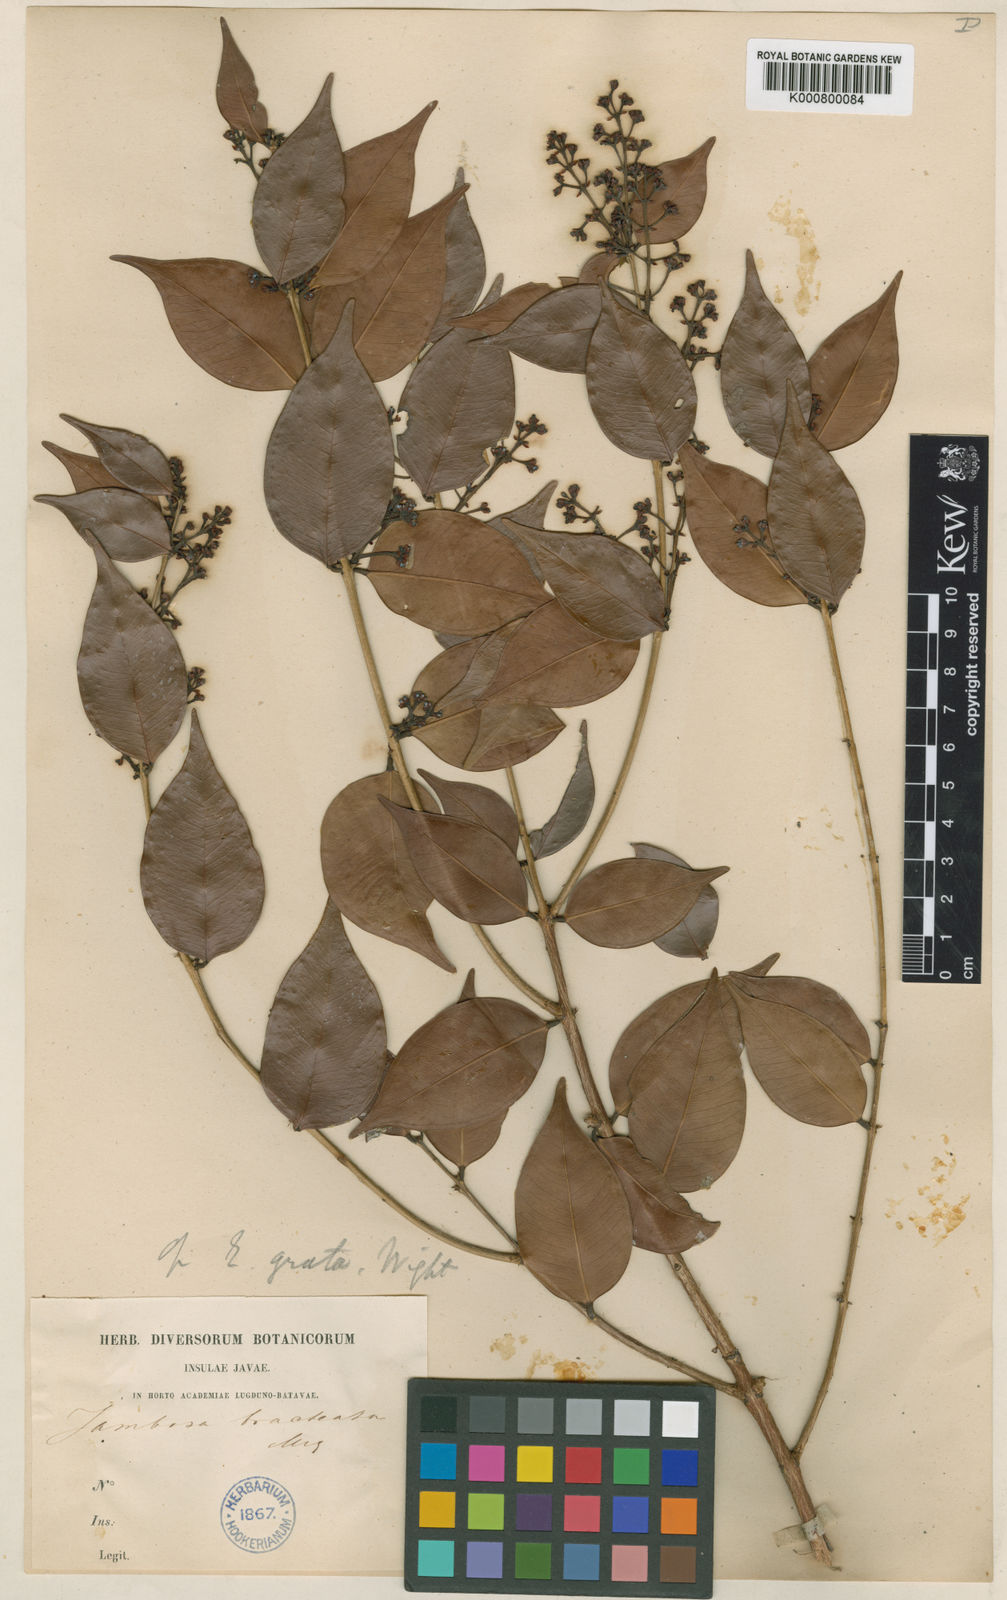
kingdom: Plantae
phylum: Tracheophyta
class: Magnoliopsida
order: Myrtales
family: Myrtaceae
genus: Syzygium
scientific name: Syzygium antisepticum
